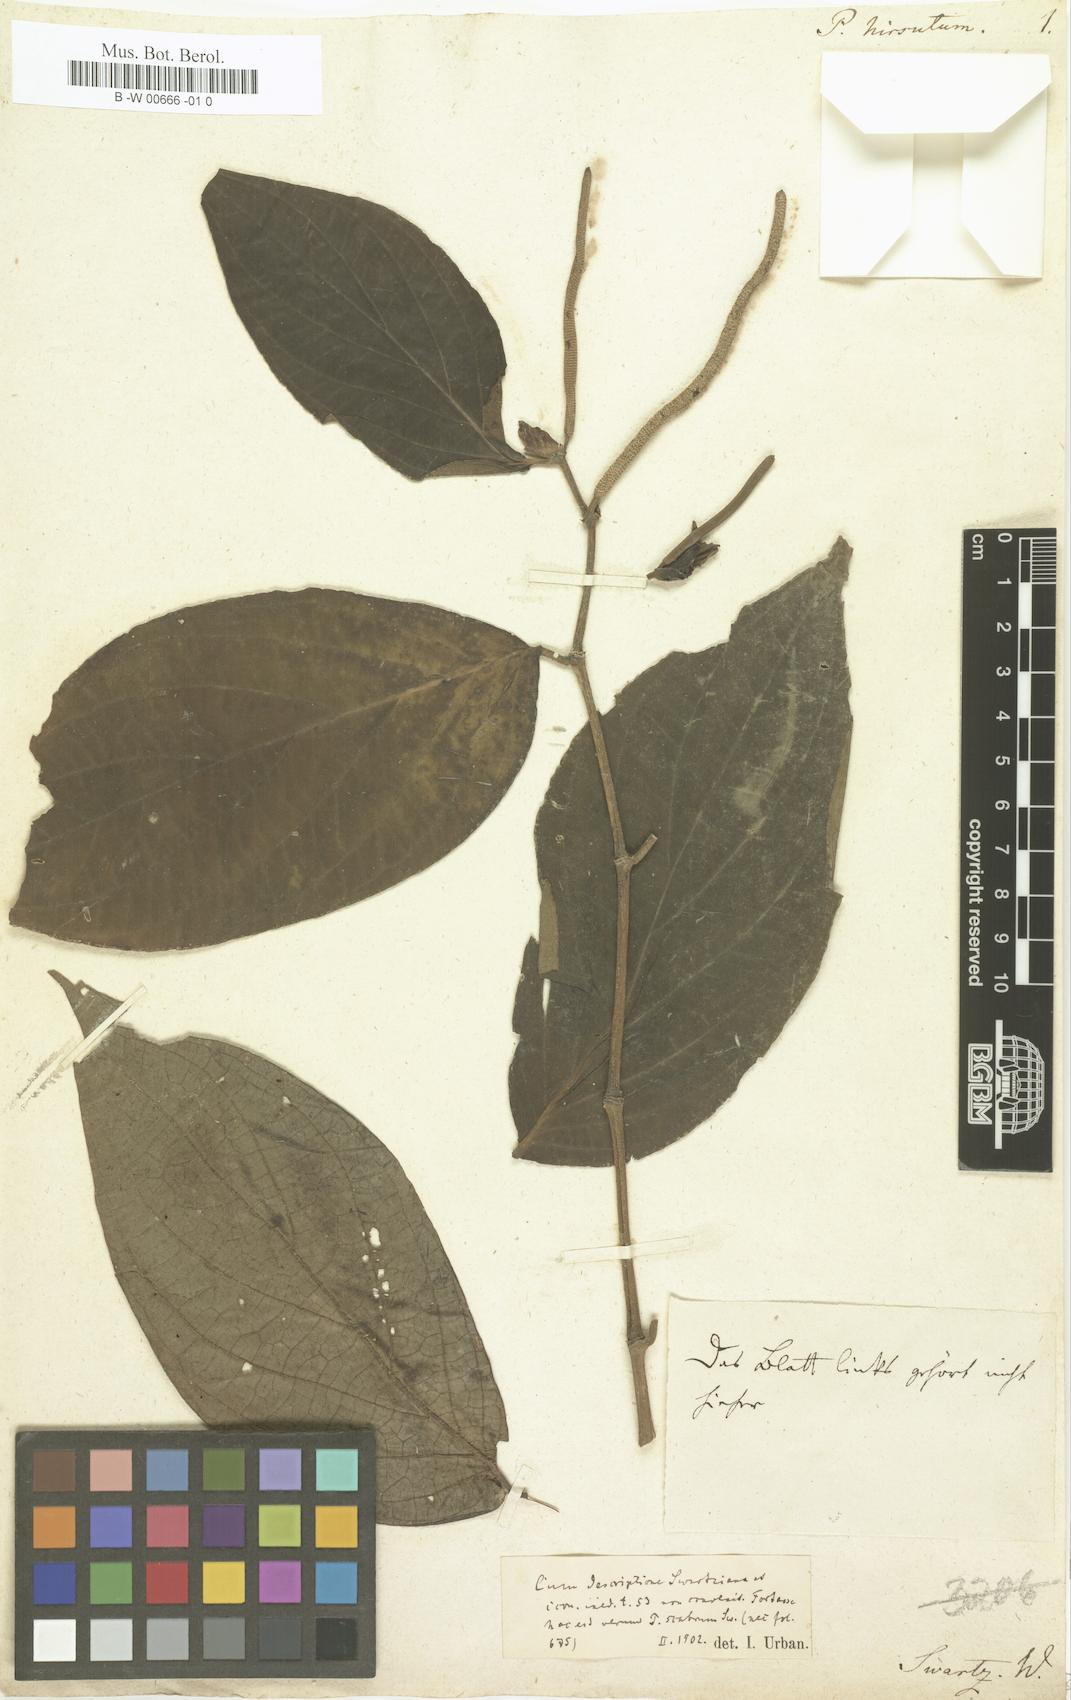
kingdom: Plantae
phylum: Tracheophyta
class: Magnoliopsida
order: Piperales
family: Piperaceae
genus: Piper
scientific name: Piper hispidum
